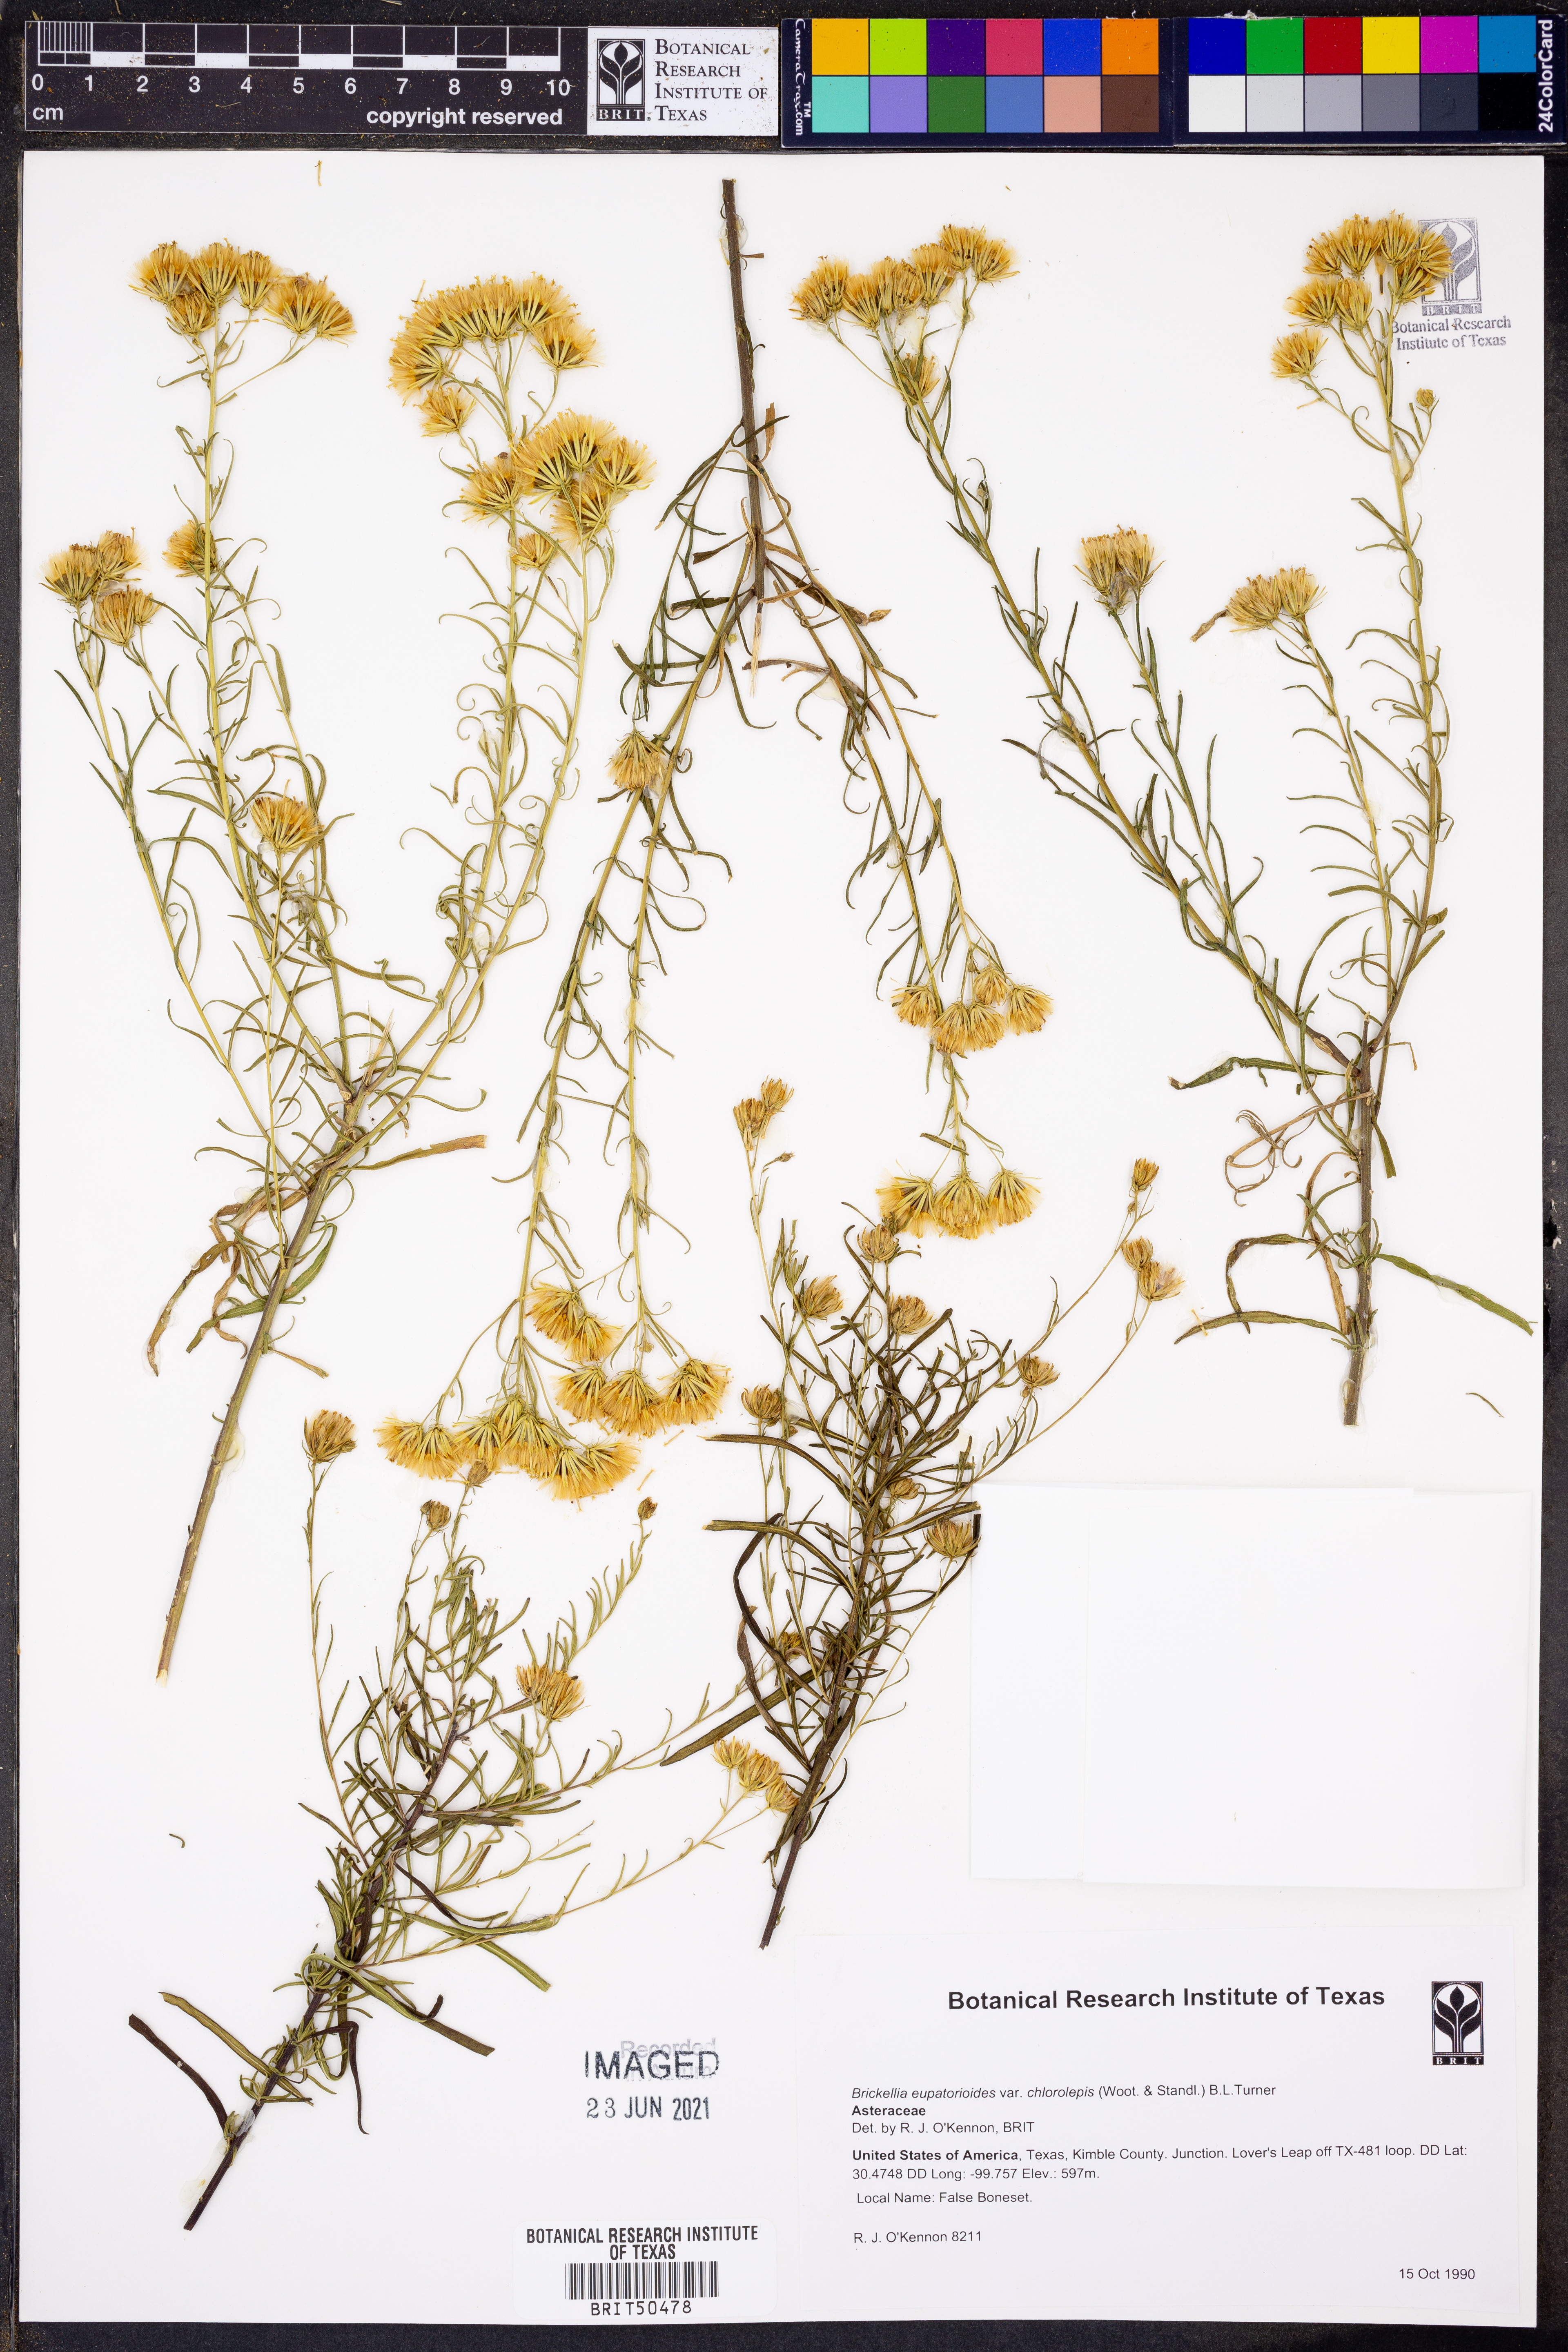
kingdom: Plantae
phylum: Tracheophyta
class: Magnoliopsida
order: Asterales
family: Asteraceae
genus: Brickellia
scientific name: Brickellia leptophylla
